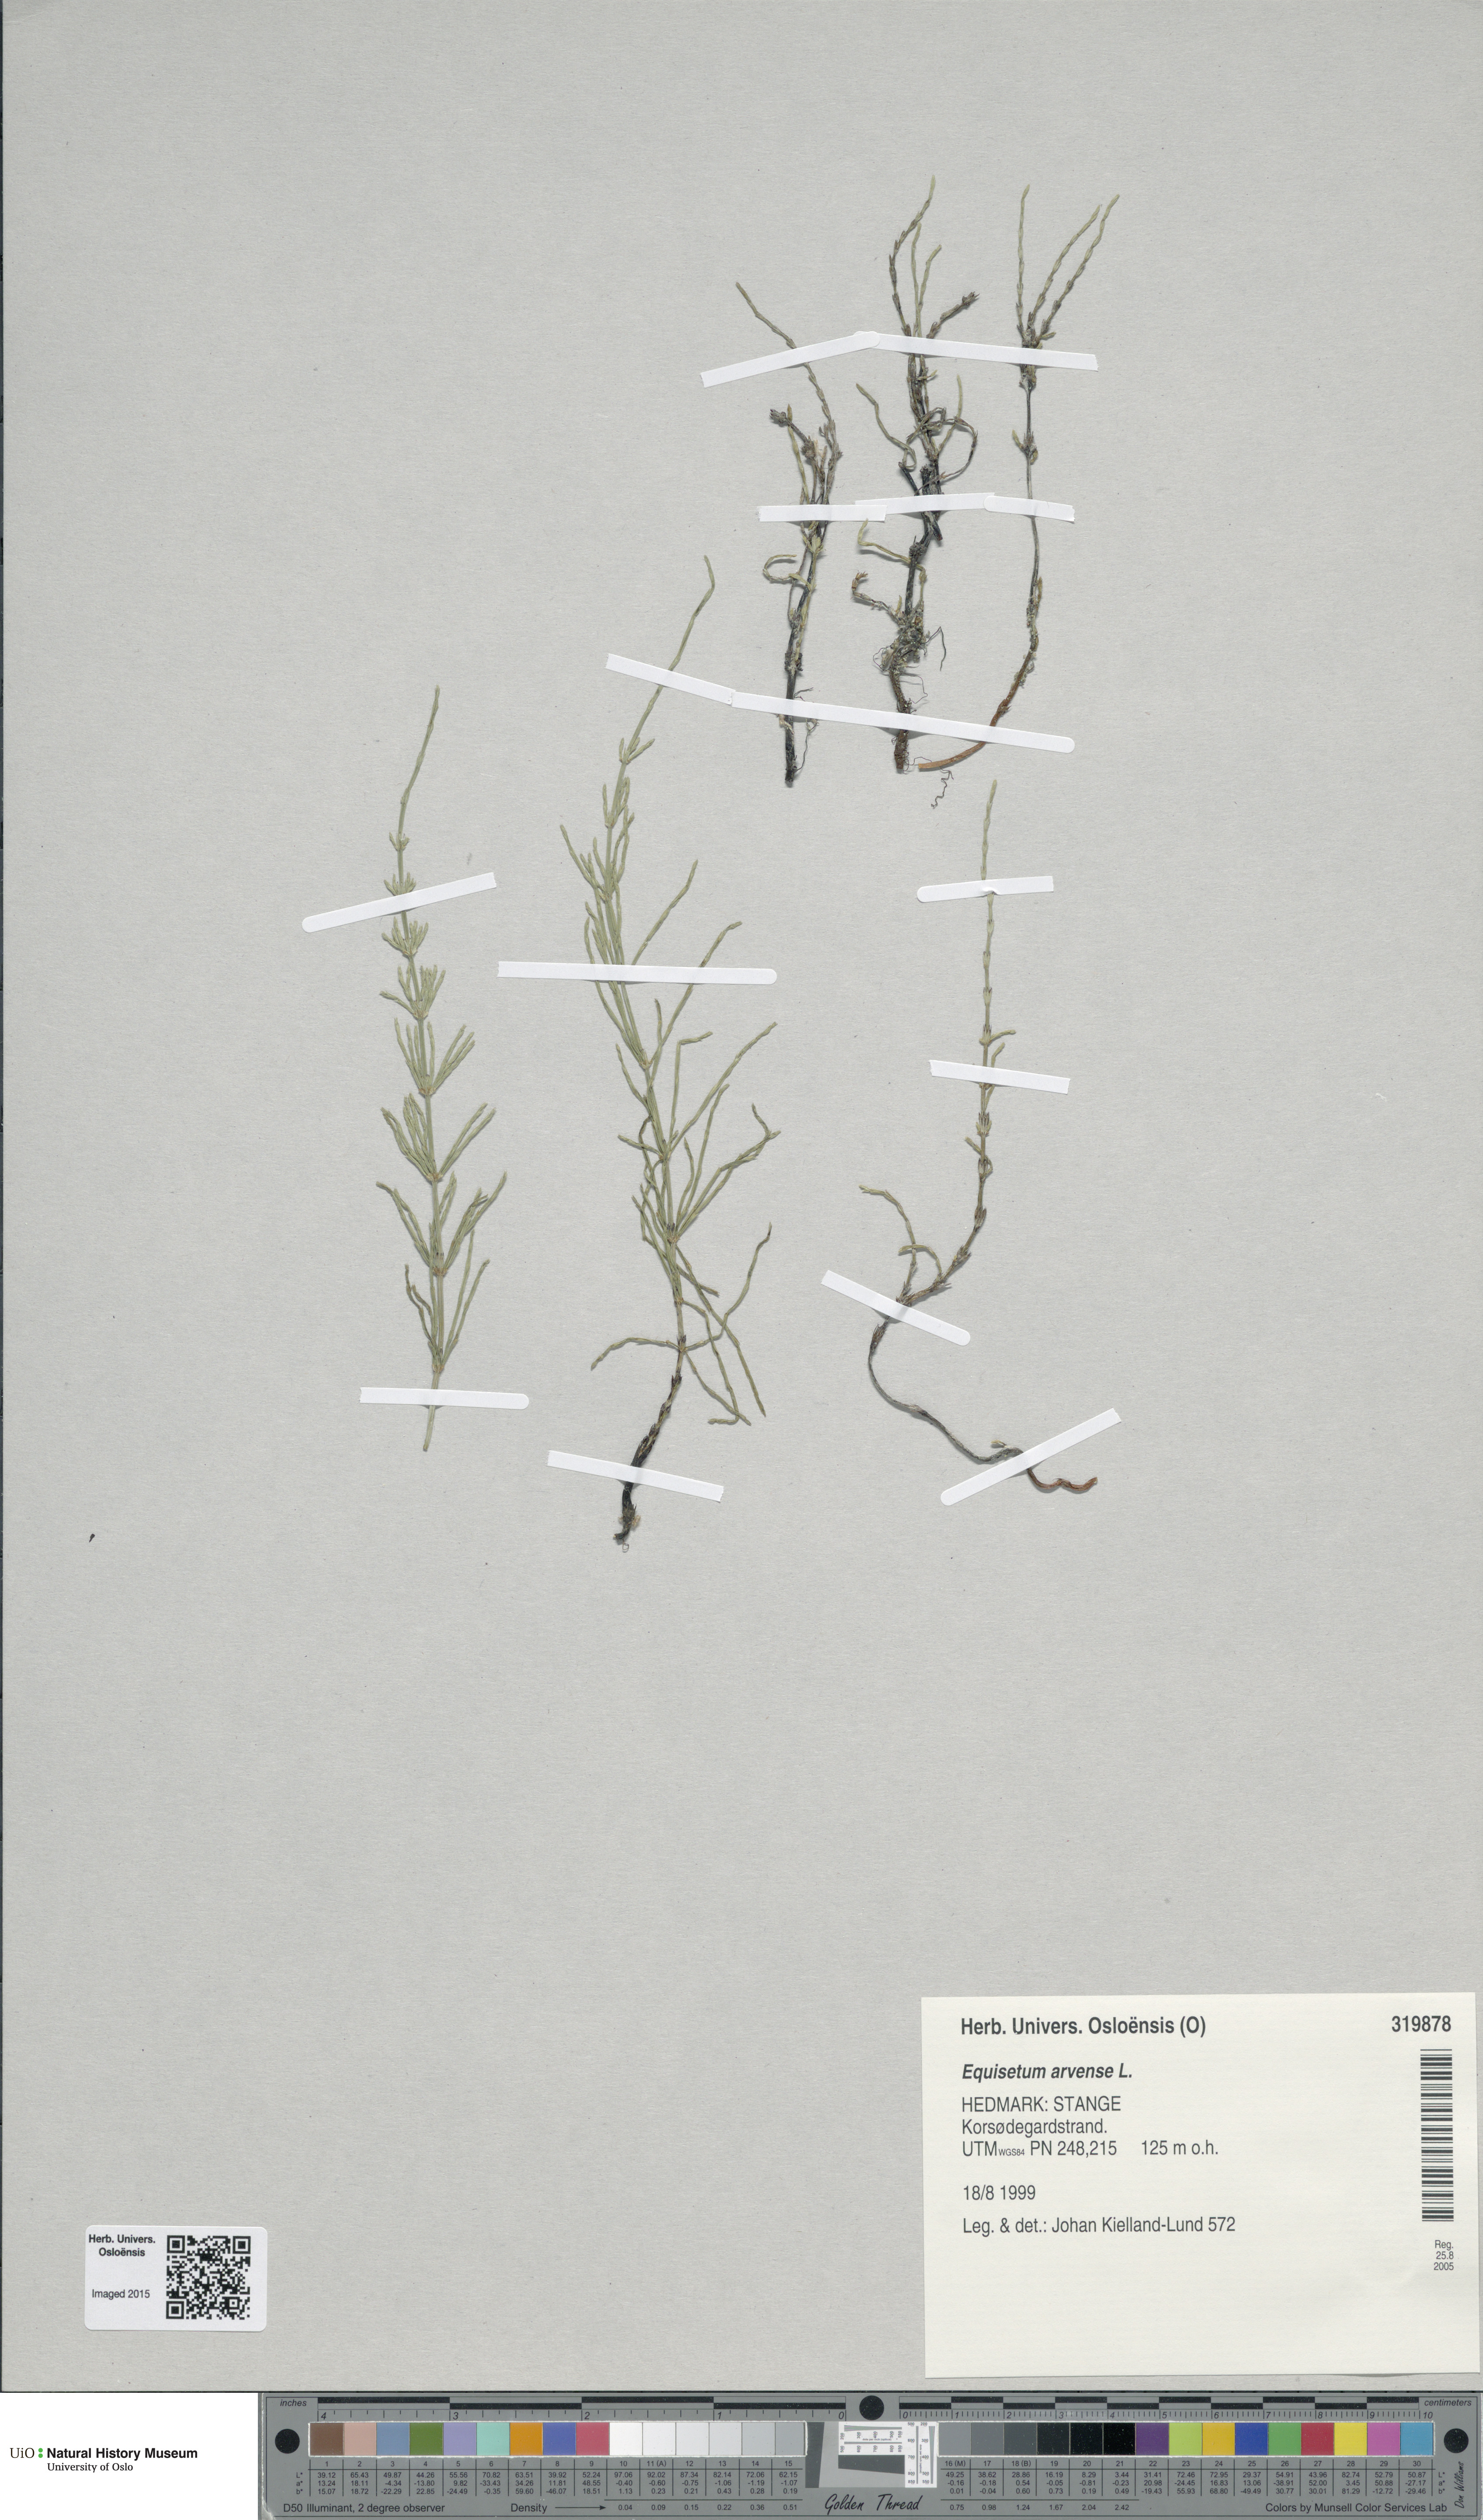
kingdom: Plantae
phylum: Tracheophyta
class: Polypodiopsida
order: Equisetales
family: Equisetaceae
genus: Equisetum
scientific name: Equisetum arvense
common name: Field horsetail
